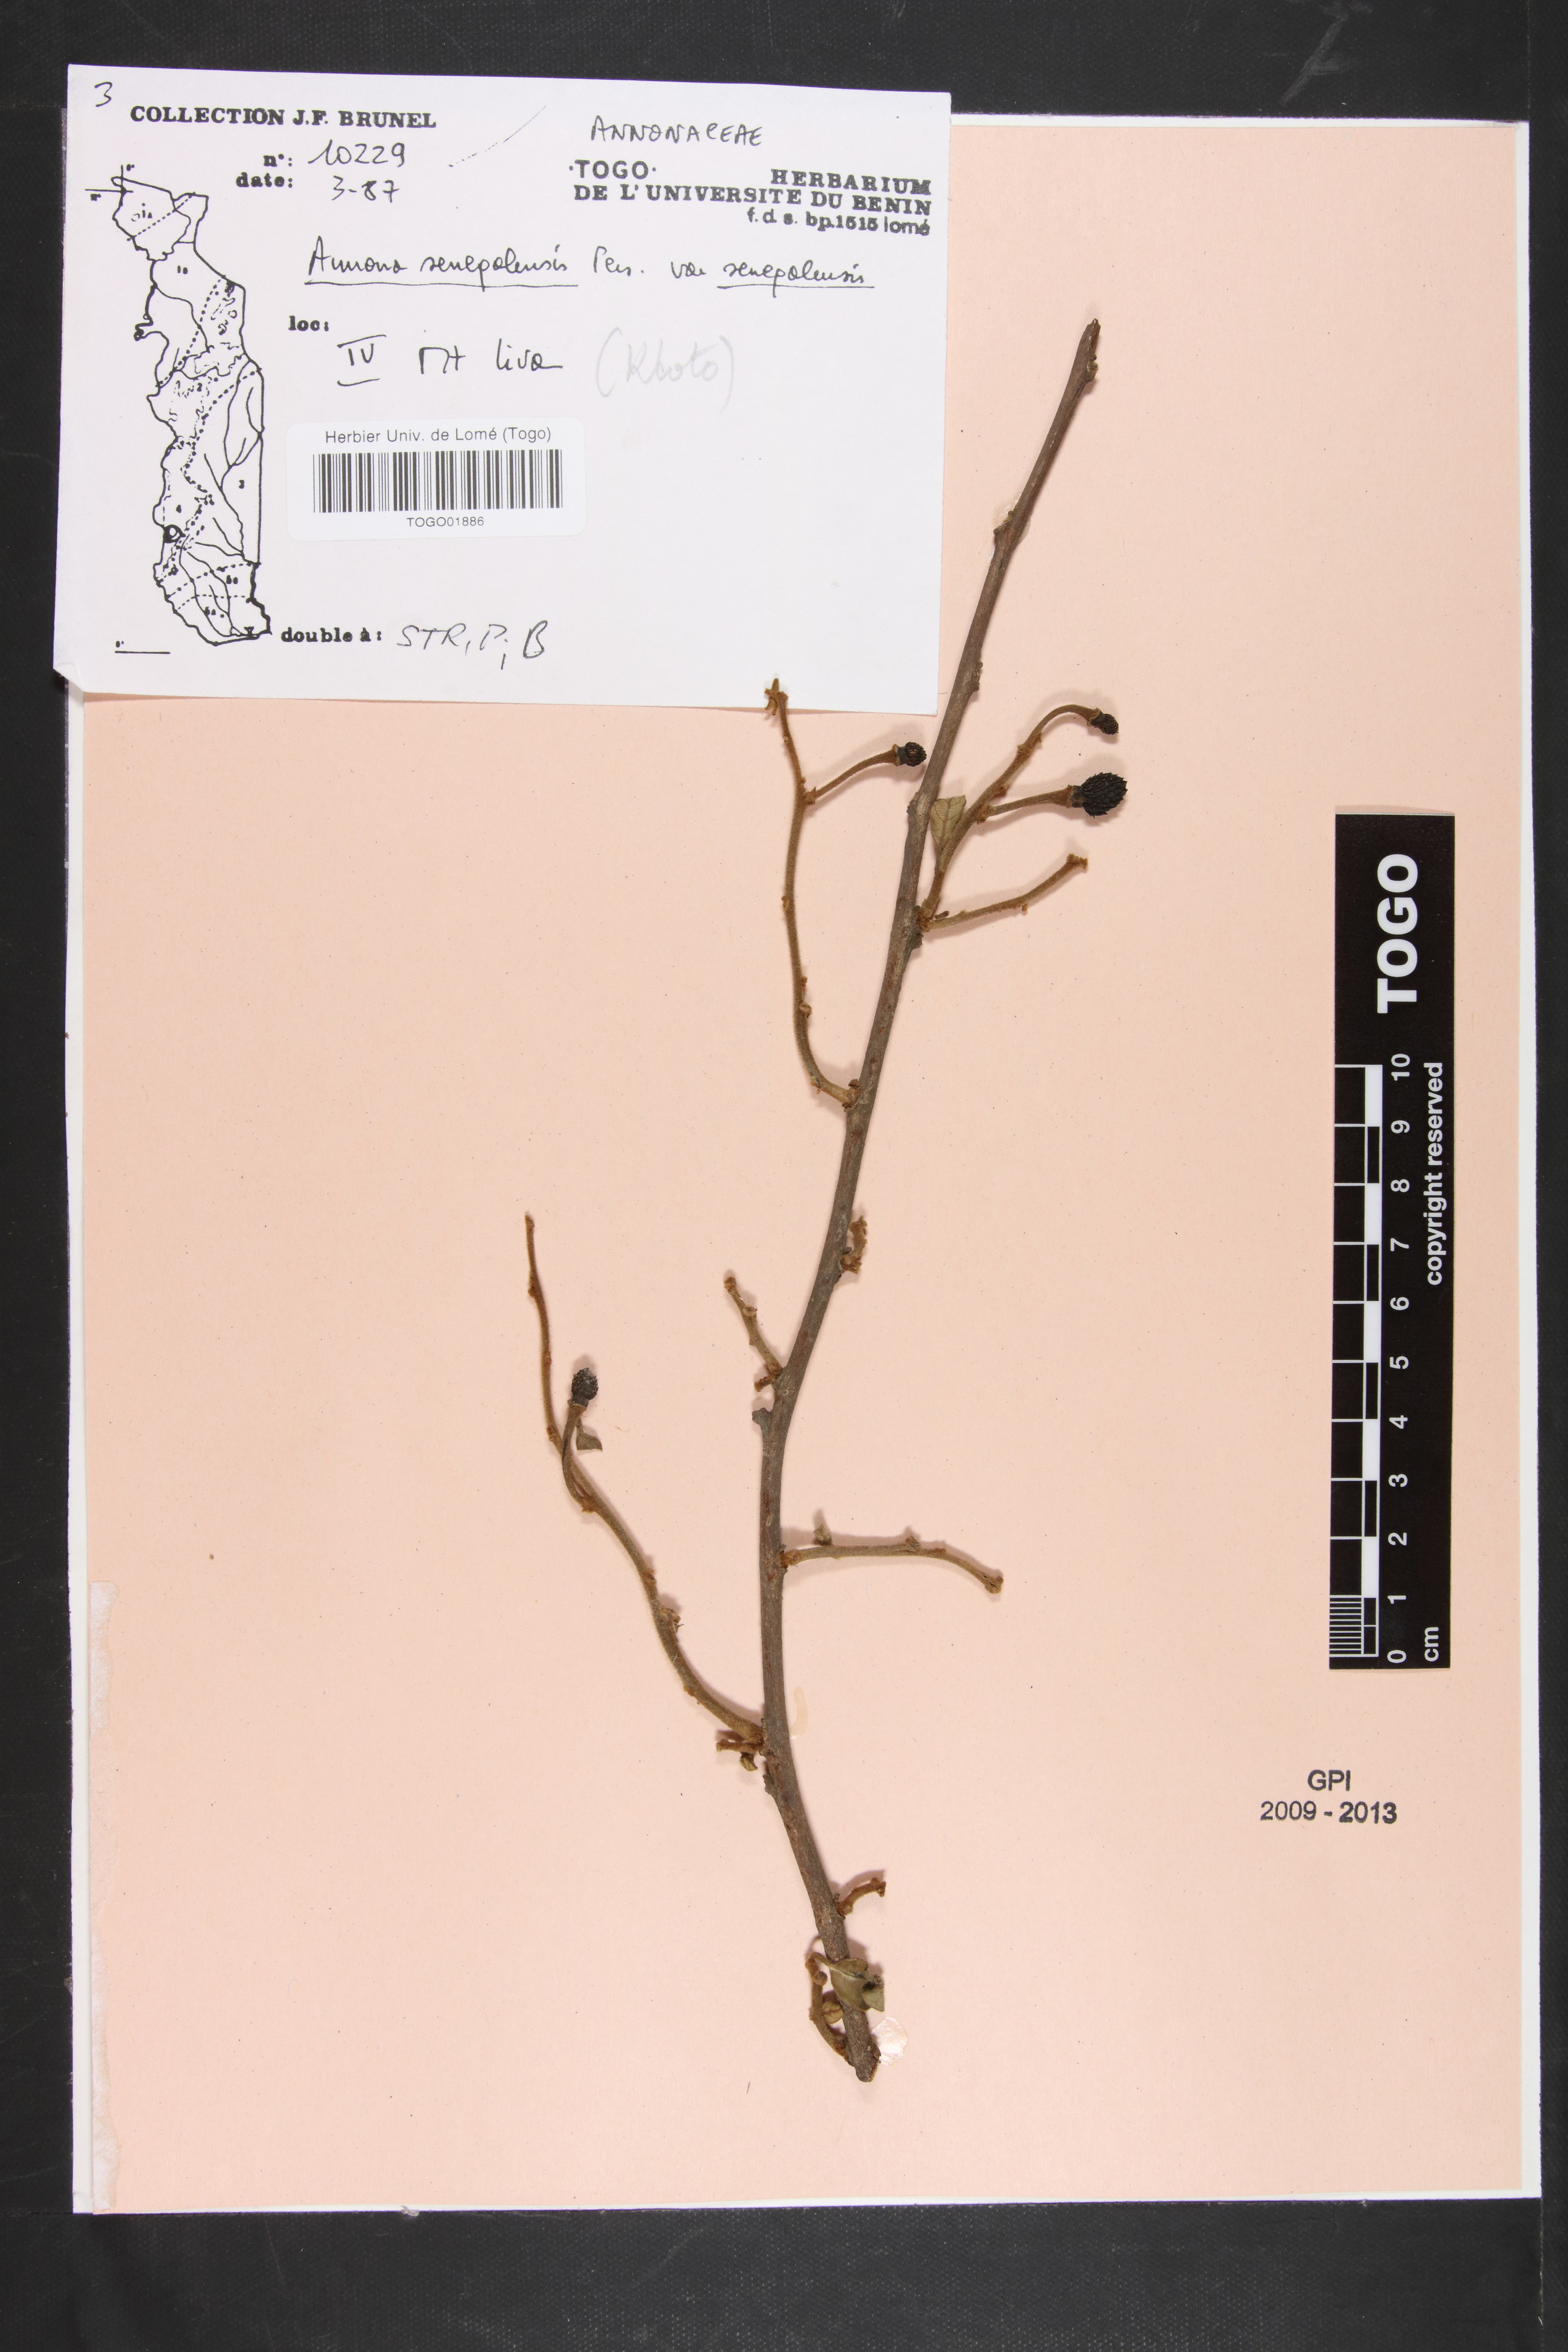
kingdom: Plantae
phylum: Tracheophyta
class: Magnoliopsida
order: Magnoliales
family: Annonaceae
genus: Annona
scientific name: Annona senegalensis
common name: Wild custard-apple
